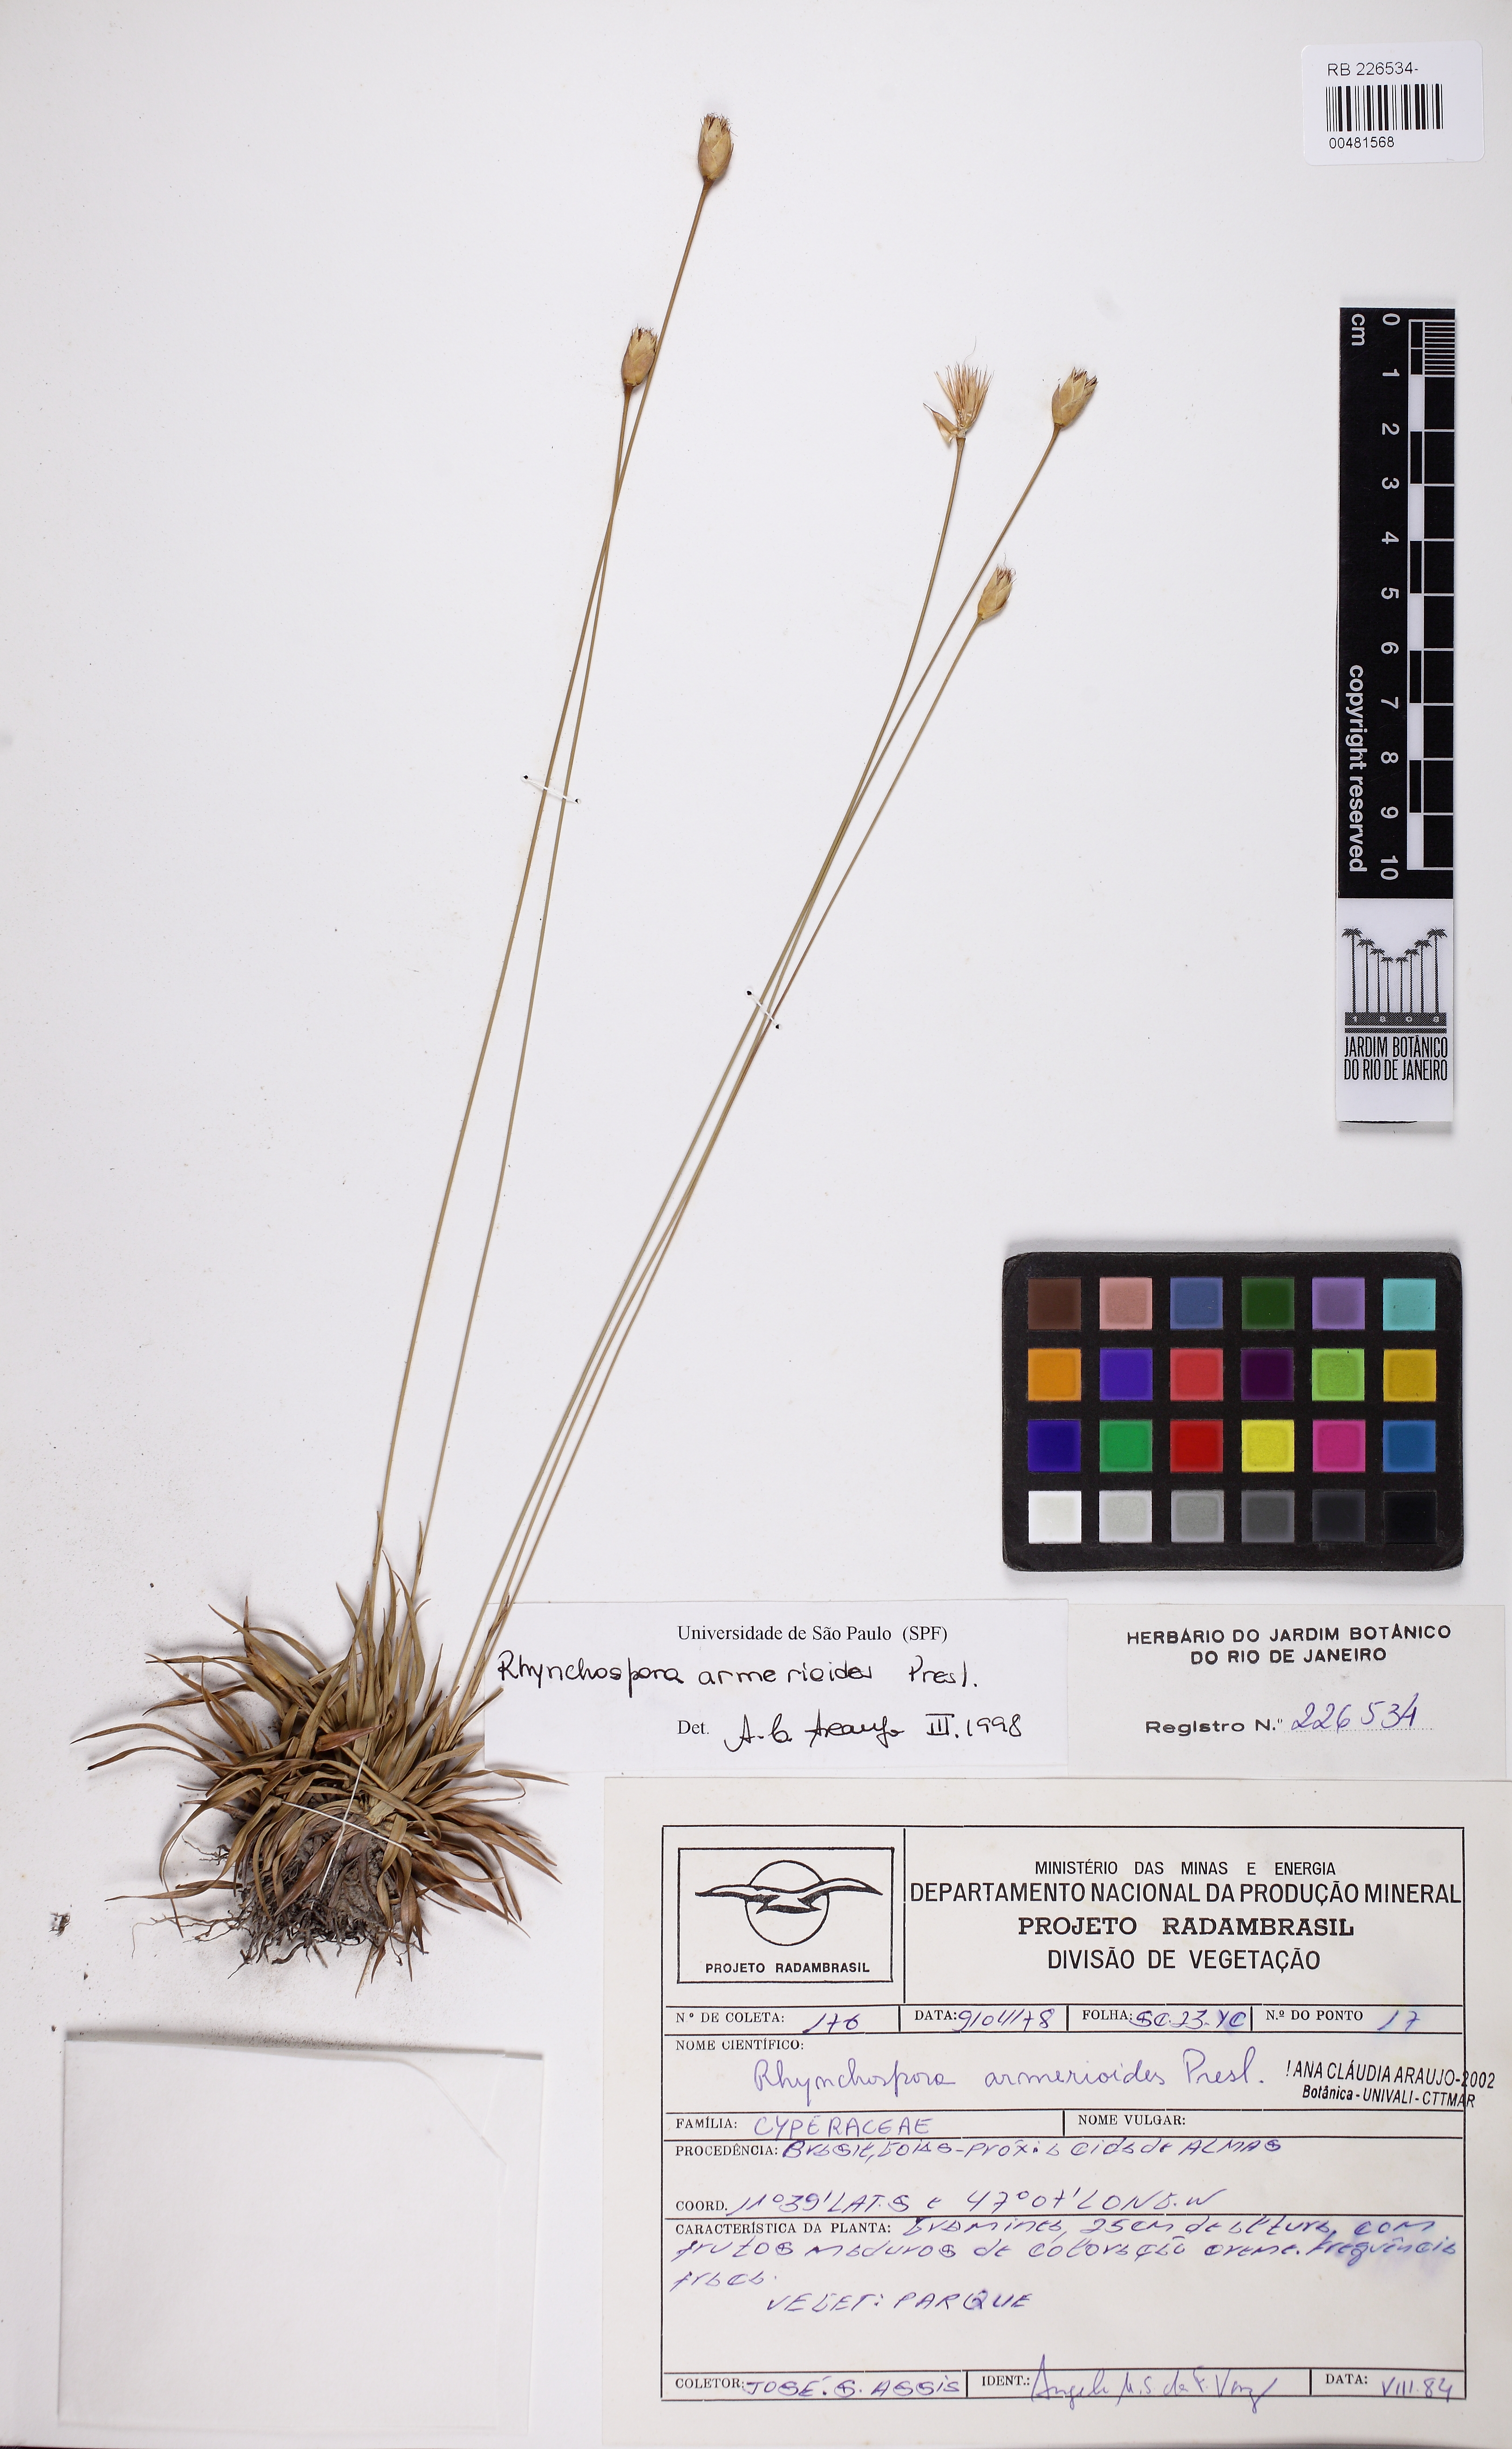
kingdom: Plantae
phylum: Tracheophyta
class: Liliopsida
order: Poales
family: Cyperaceae
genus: Rhynchospora
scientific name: Rhynchospora armerioides
